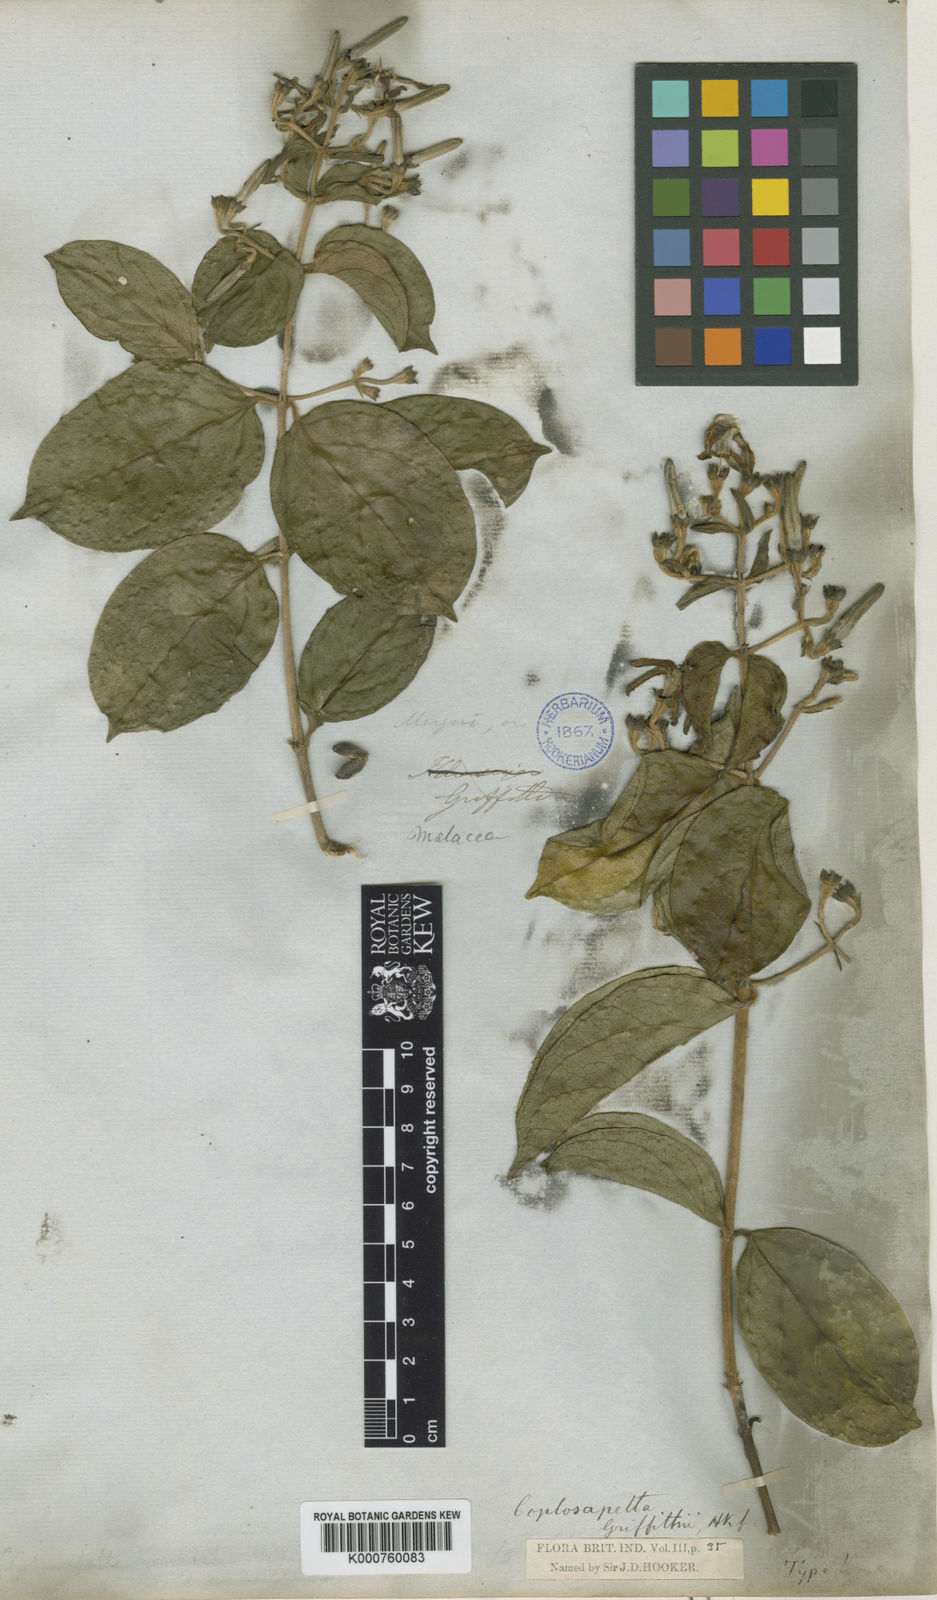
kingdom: Plantae
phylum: Tracheophyta
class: Magnoliopsida
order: Gentianales
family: Rubiaceae
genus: Coptosapelta
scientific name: Coptosapelta griffithii
